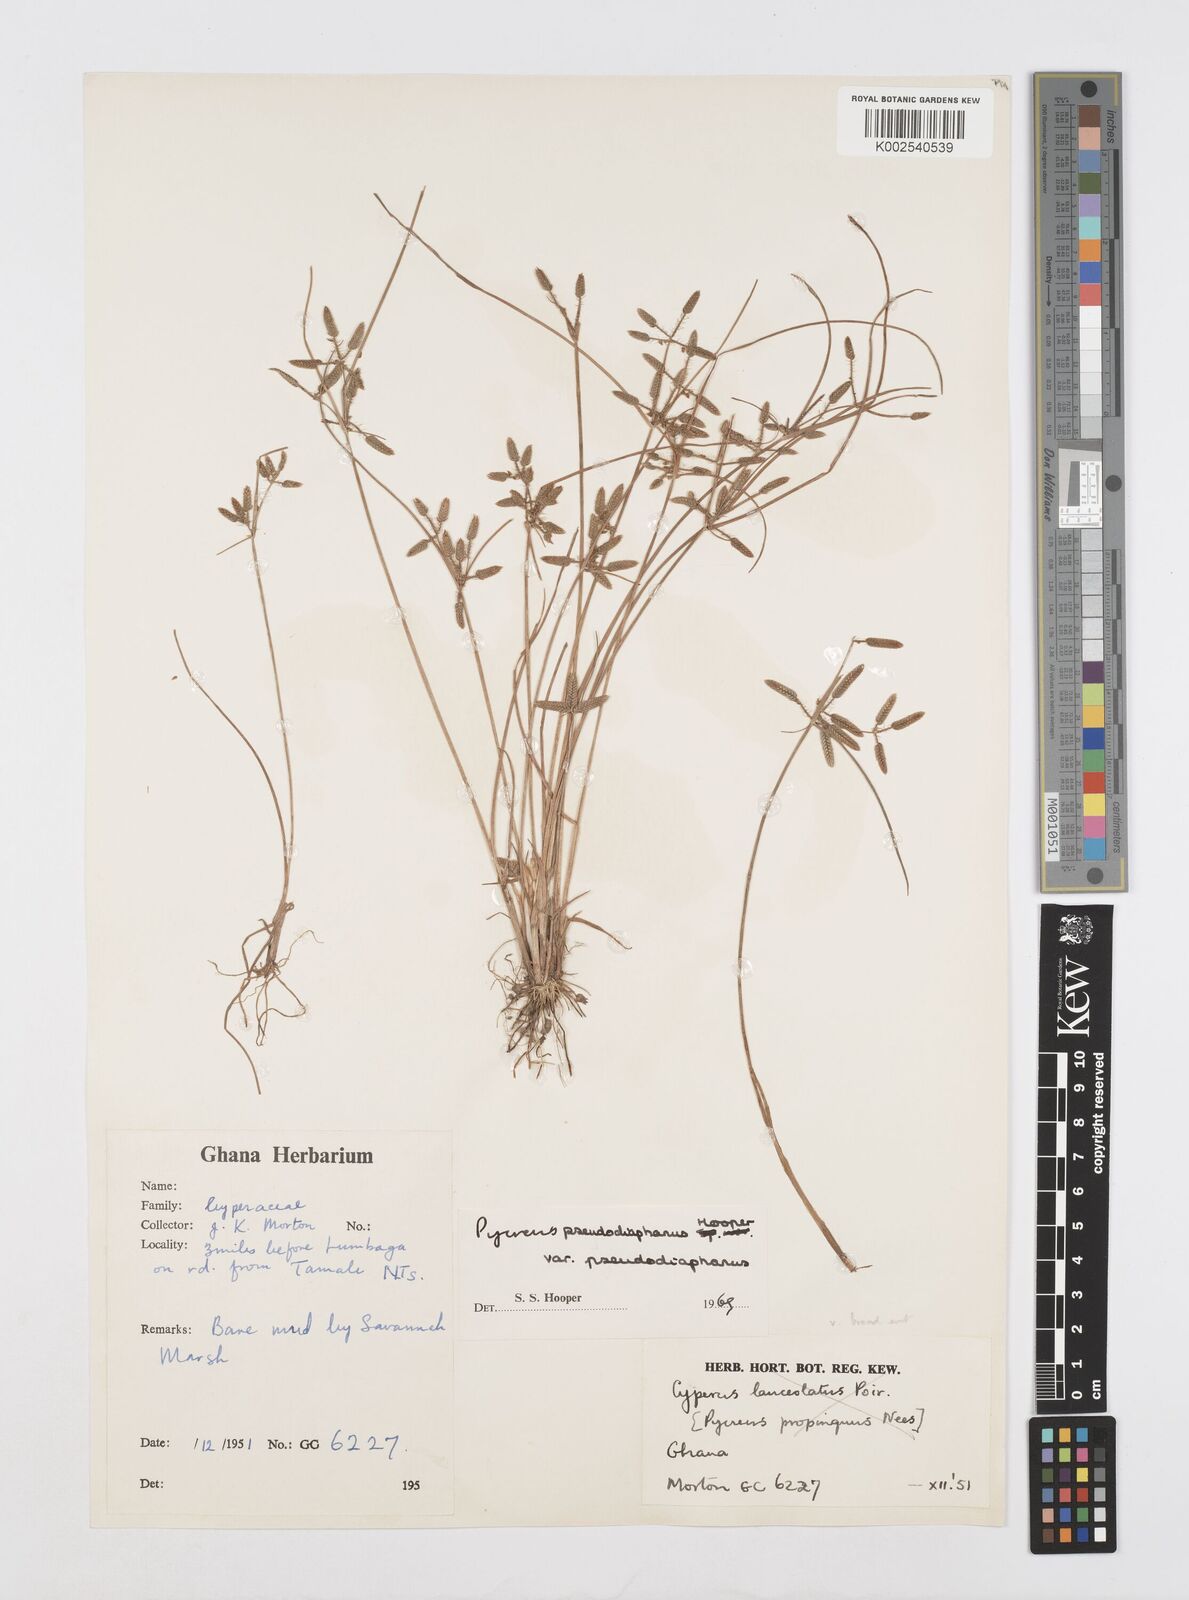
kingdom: Plantae
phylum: Tracheophyta
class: Liliopsida
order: Poales
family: Cyperaceae
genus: Cyperus
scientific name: Cyperus pseudodiaphanus
